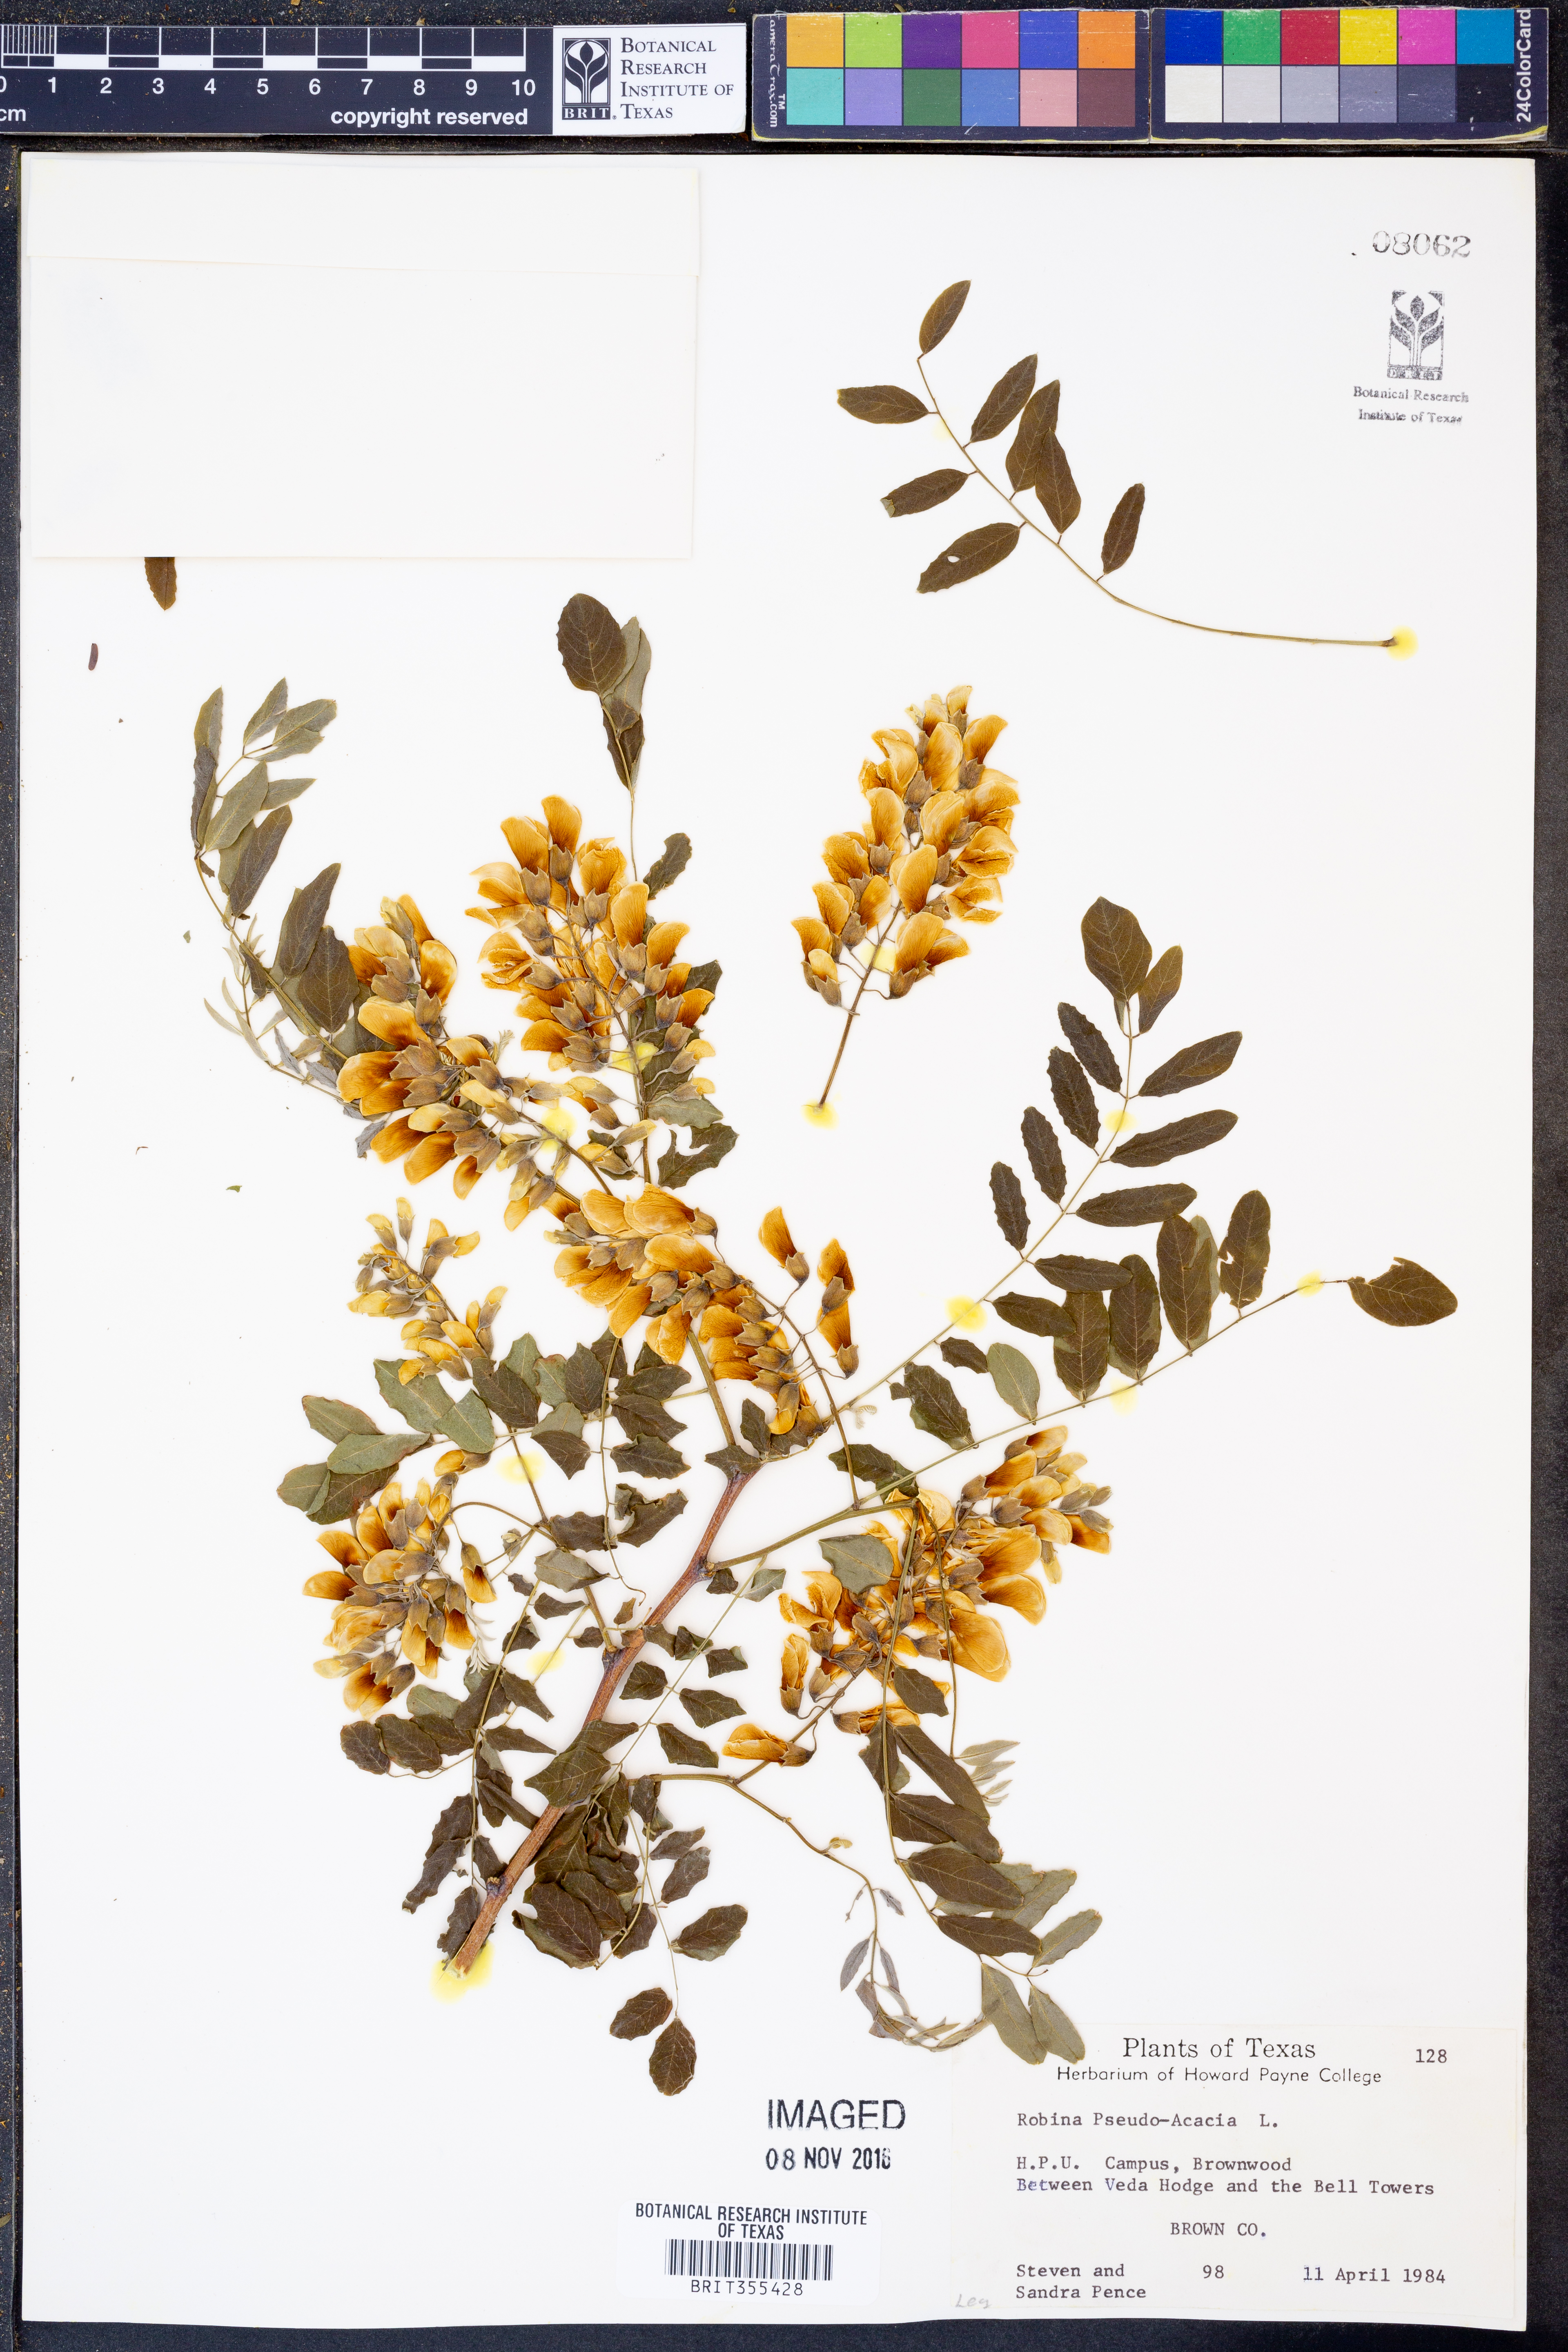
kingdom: Plantae
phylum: Tracheophyta
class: Magnoliopsida
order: Fabales
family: Fabaceae
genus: Robinia
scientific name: Robinia pseudoacacia
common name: Black locust
